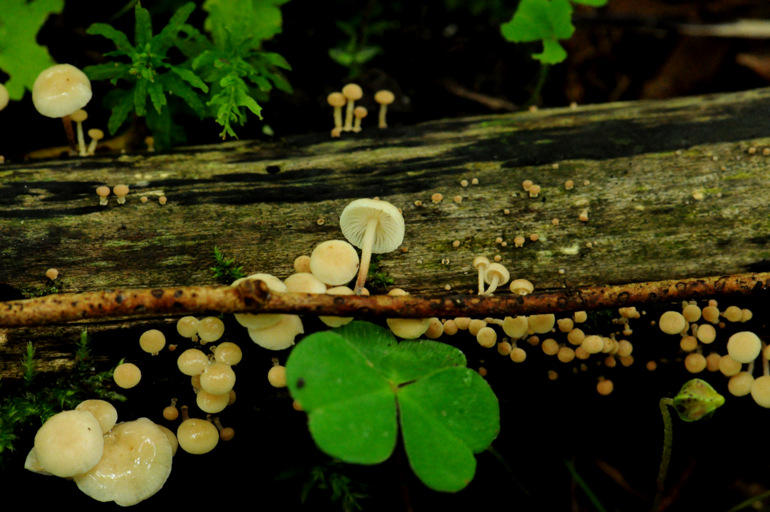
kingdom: Fungi
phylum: Basidiomycota
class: Agaricomycetes
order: Agaricales
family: Omphalotaceae
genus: Collybiopsis
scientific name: Collybiopsis ramealis
